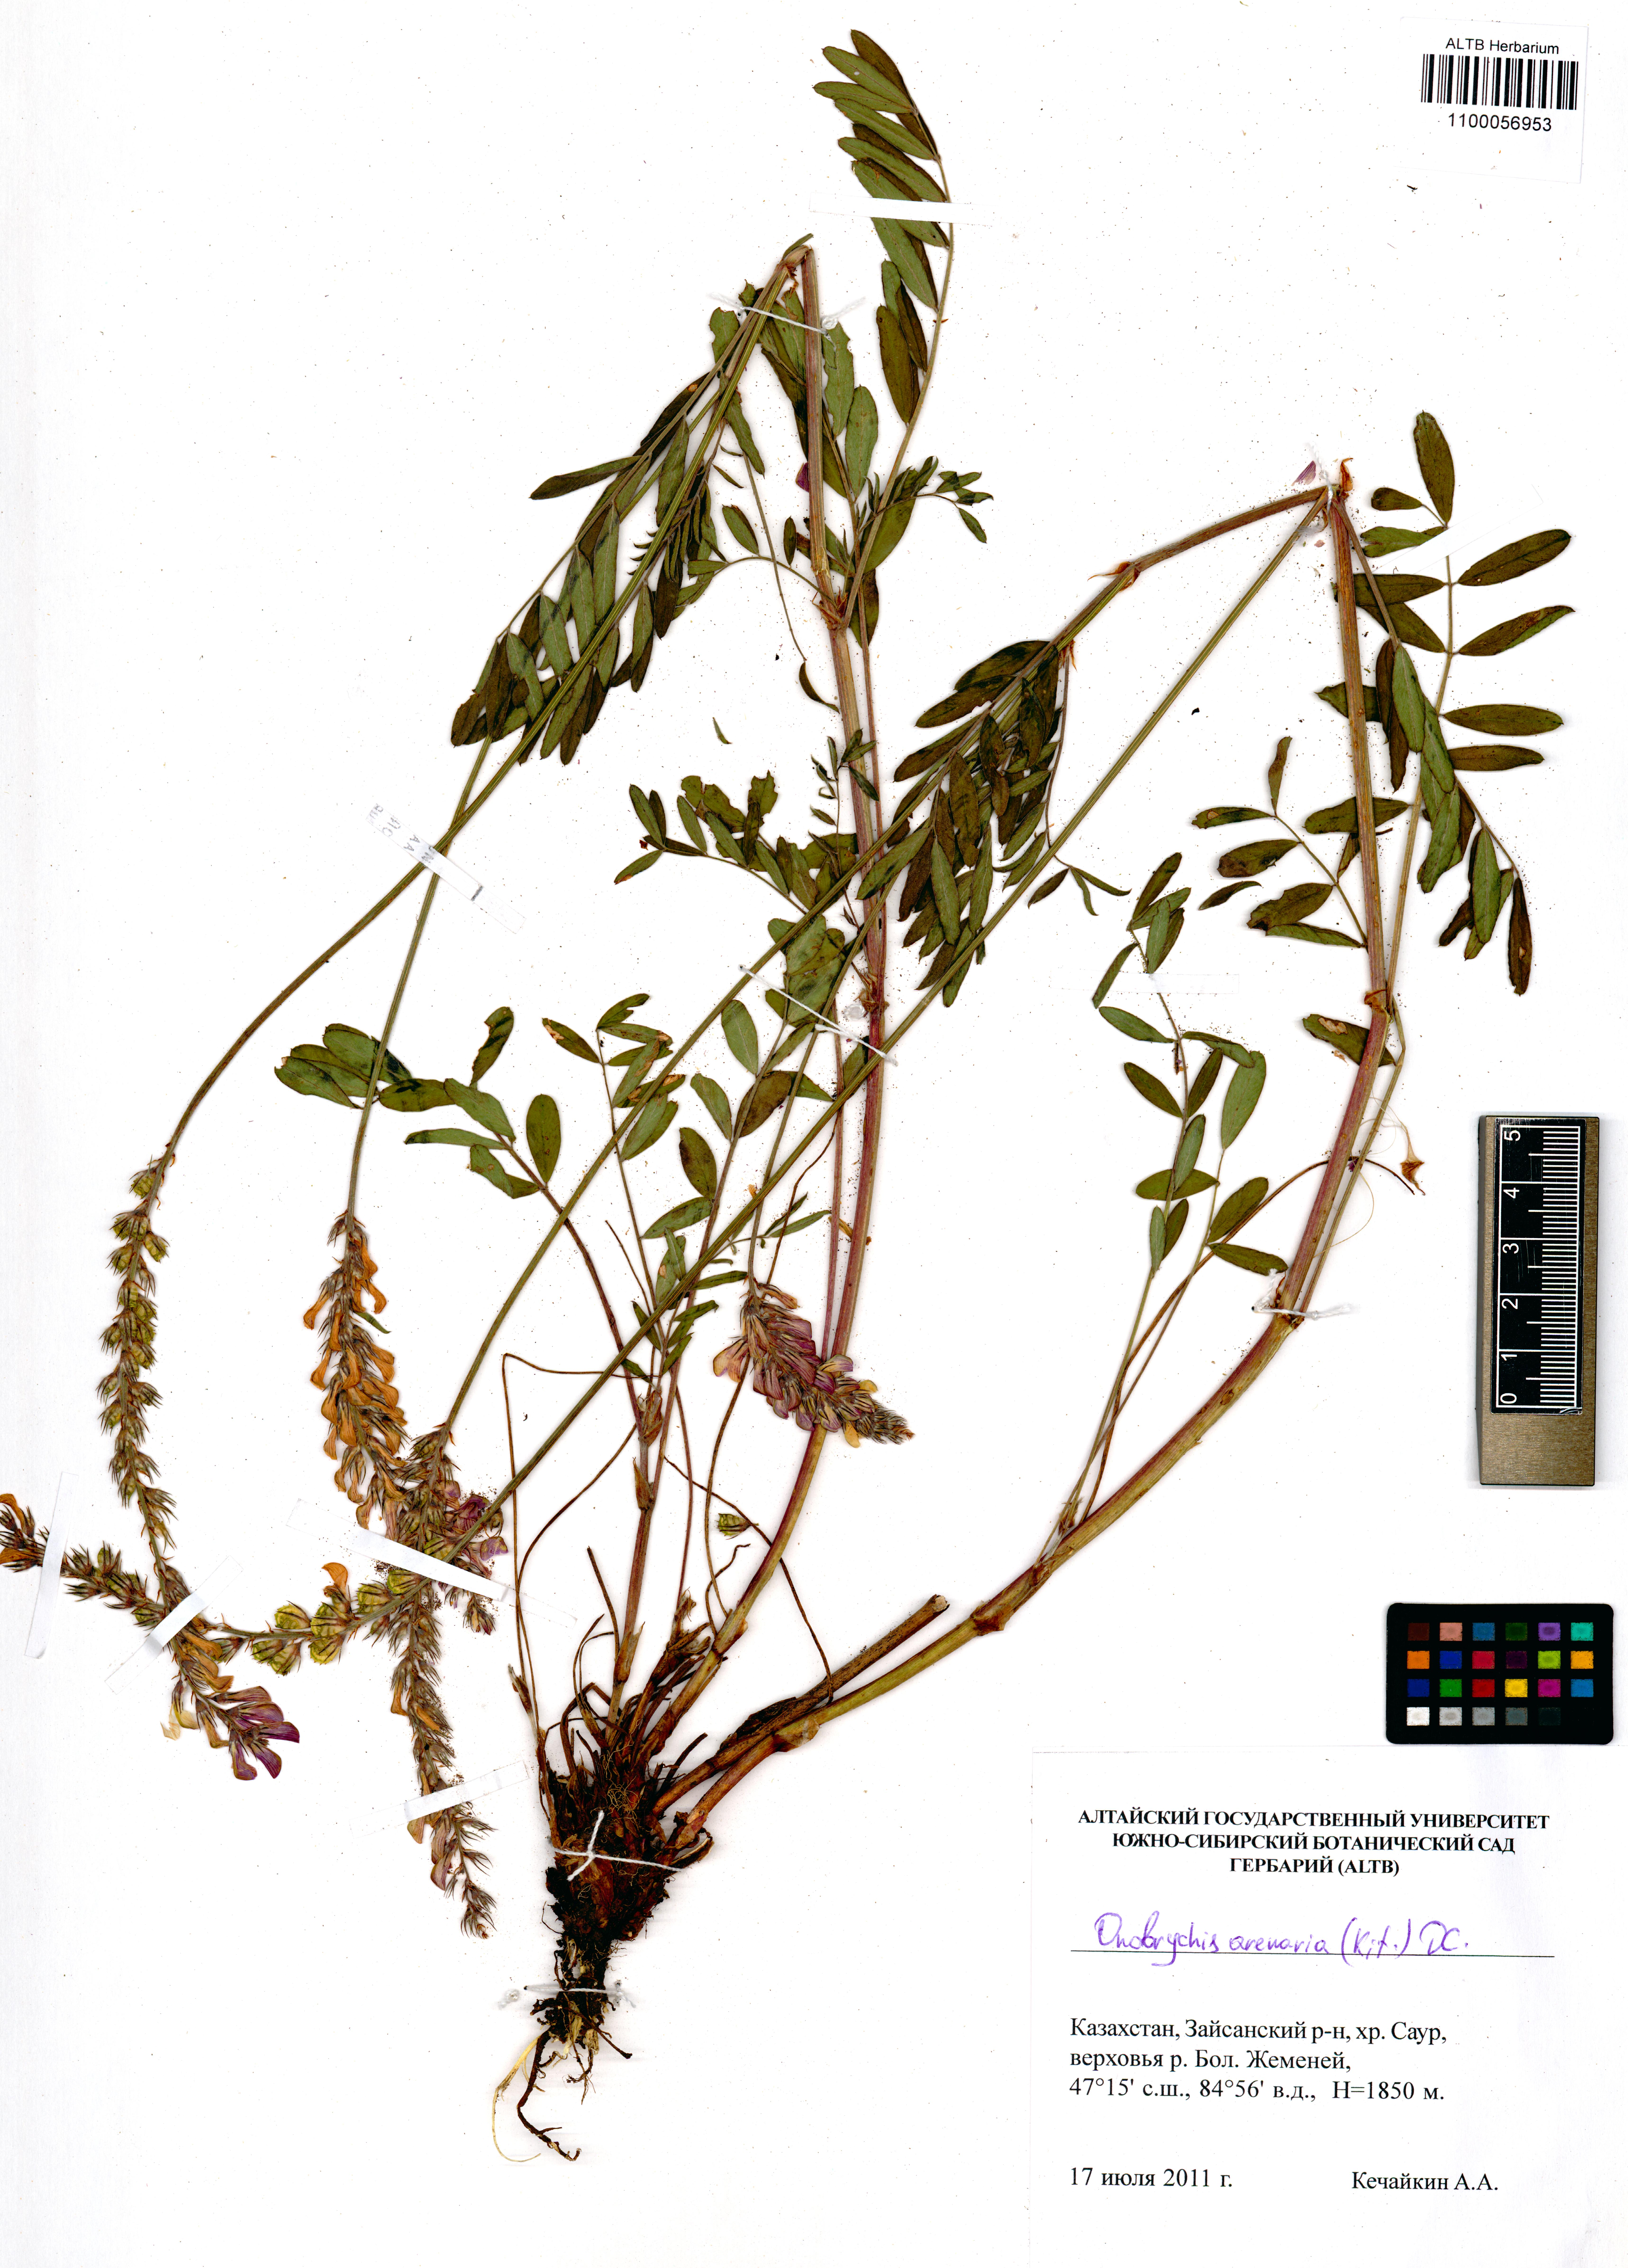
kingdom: Plantae
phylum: Tracheophyta
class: Magnoliopsida
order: Fabales
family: Fabaceae
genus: Onobrychis
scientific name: Onobrychis arenaria
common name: Sand esparcet
